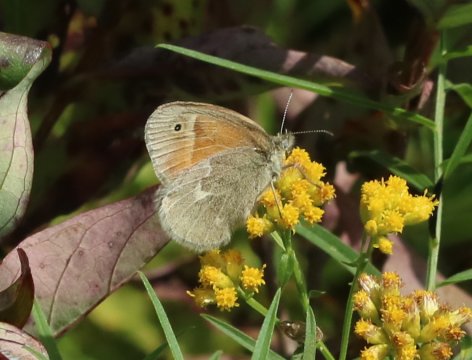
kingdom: Animalia
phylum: Arthropoda
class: Insecta
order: Lepidoptera
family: Nymphalidae
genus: Coenonympha
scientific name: Coenonympha tullia
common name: Large Heath
